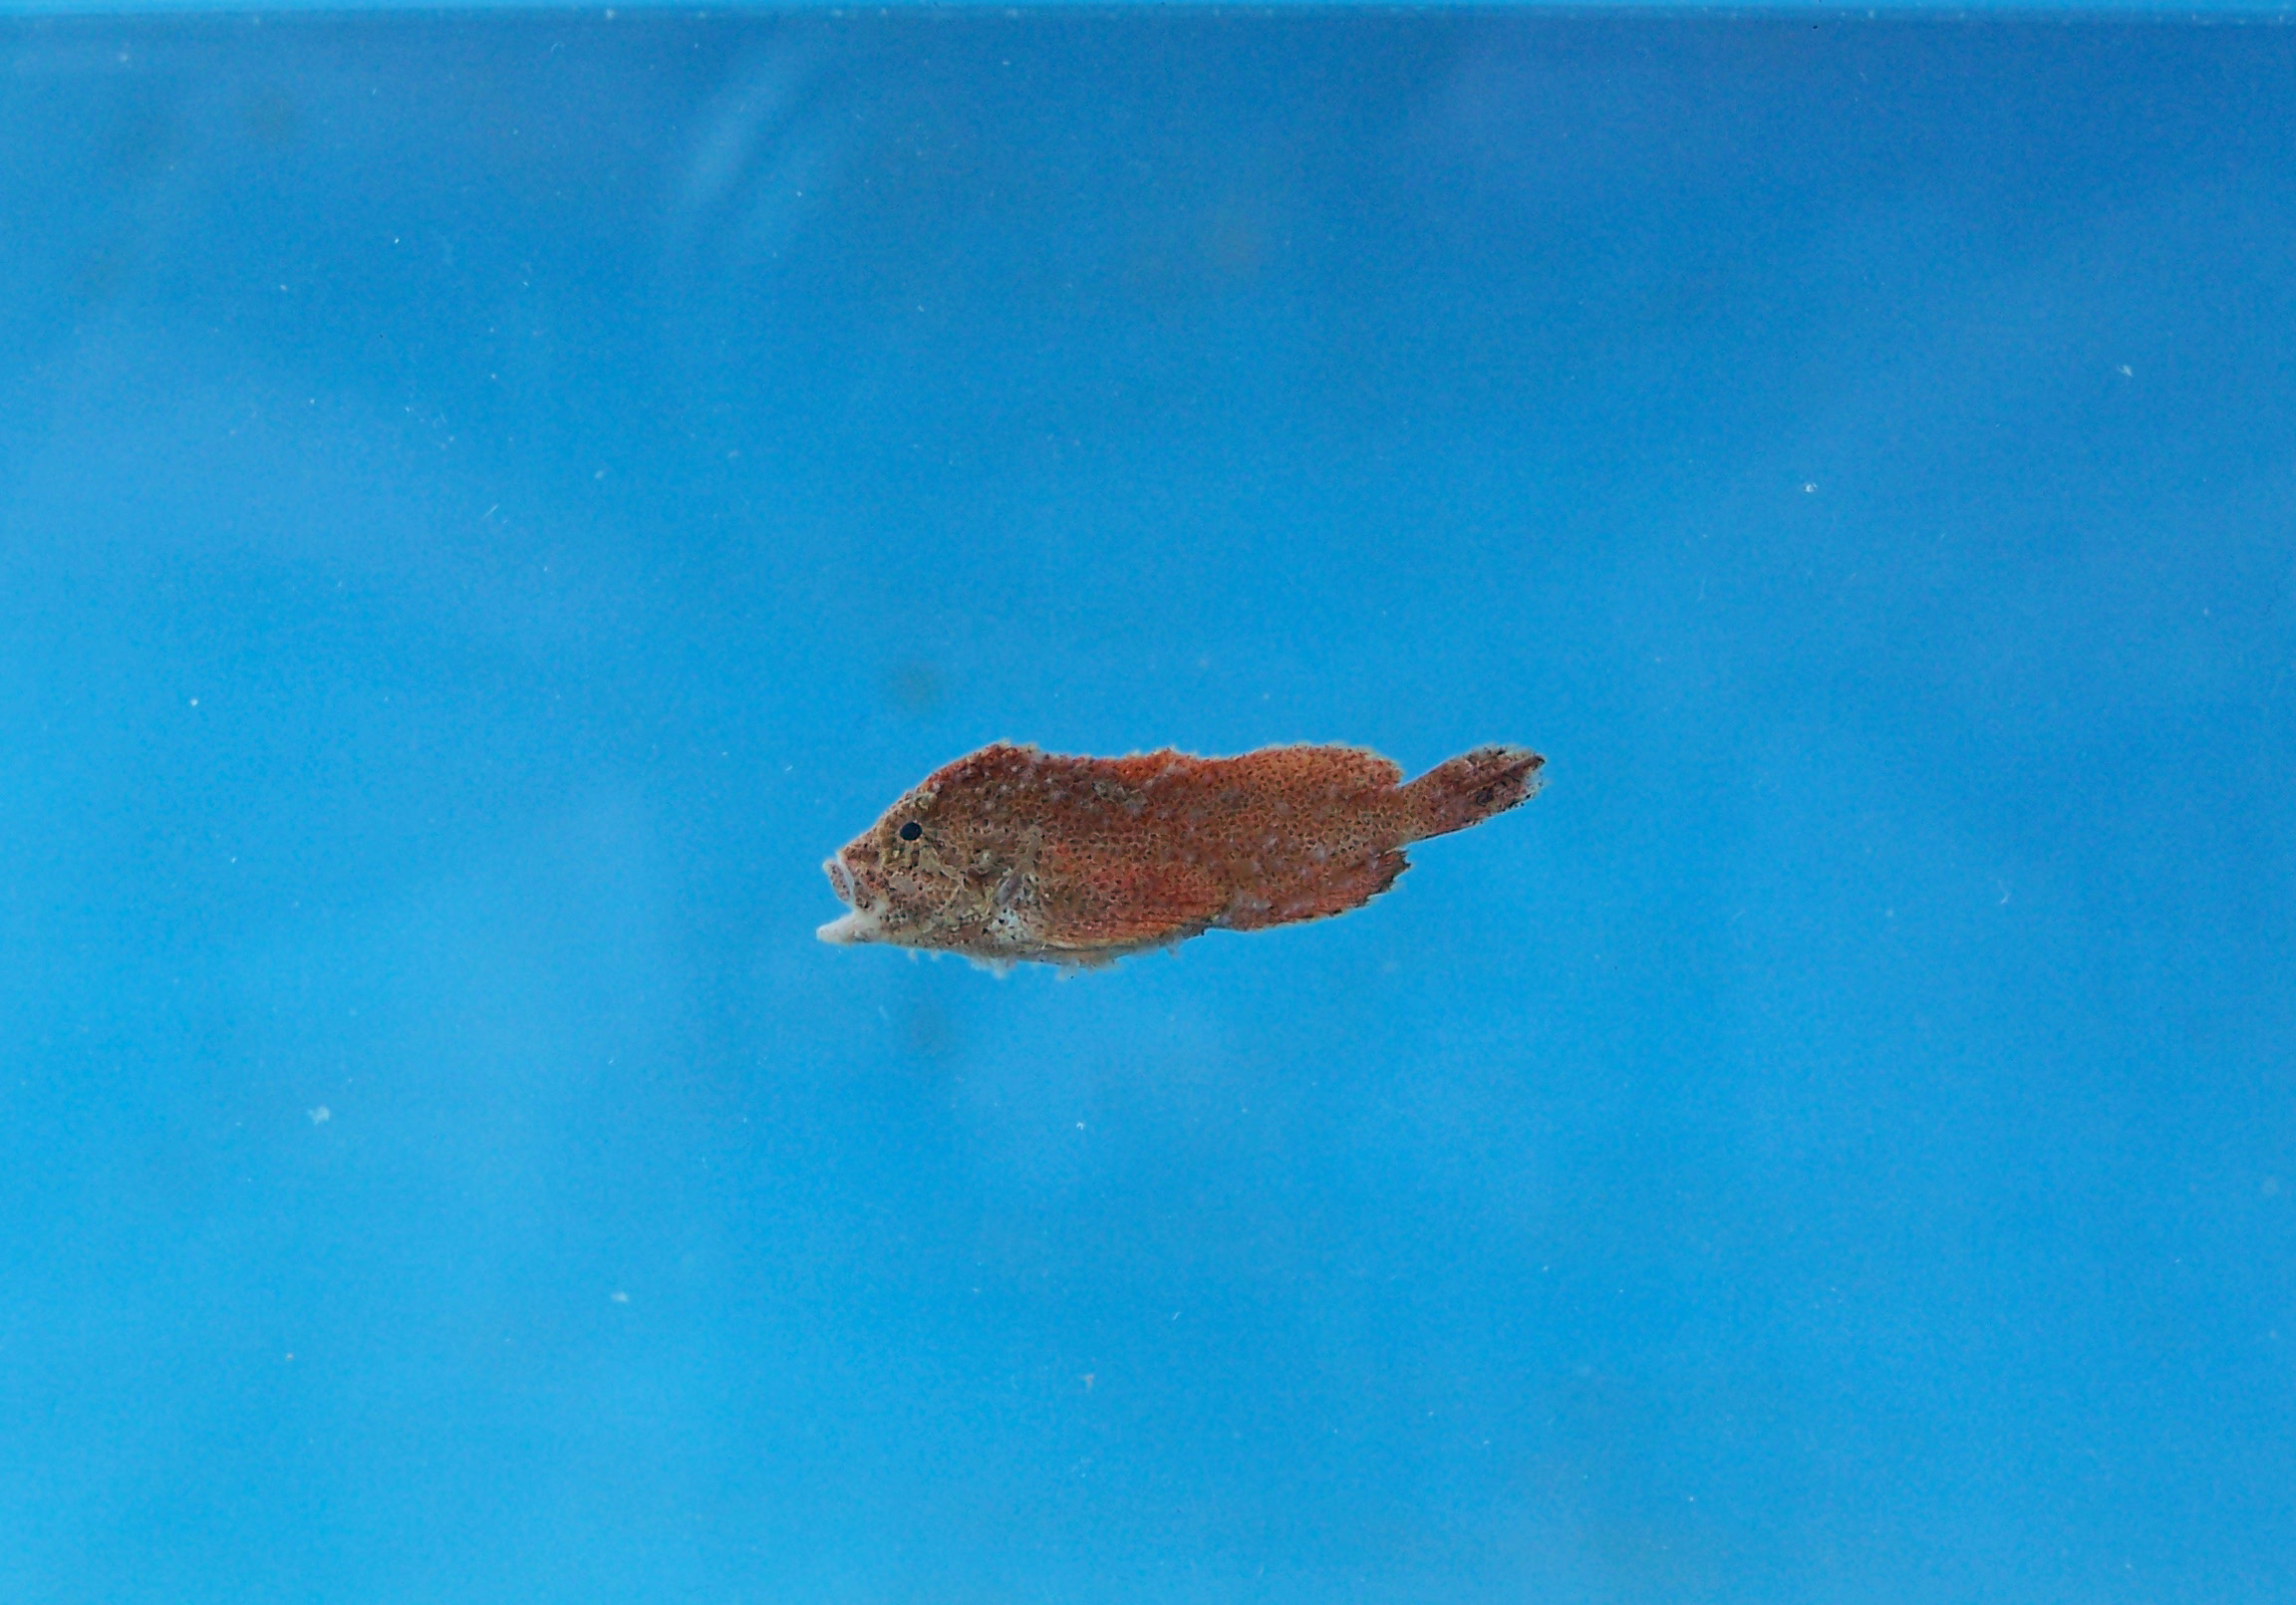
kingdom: Animalia
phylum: Chordata
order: Scorpaeniformes
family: Aploactinidae
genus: Cocotropus
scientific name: Cocotropus monacanthus
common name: Roughskin scorpionfish
